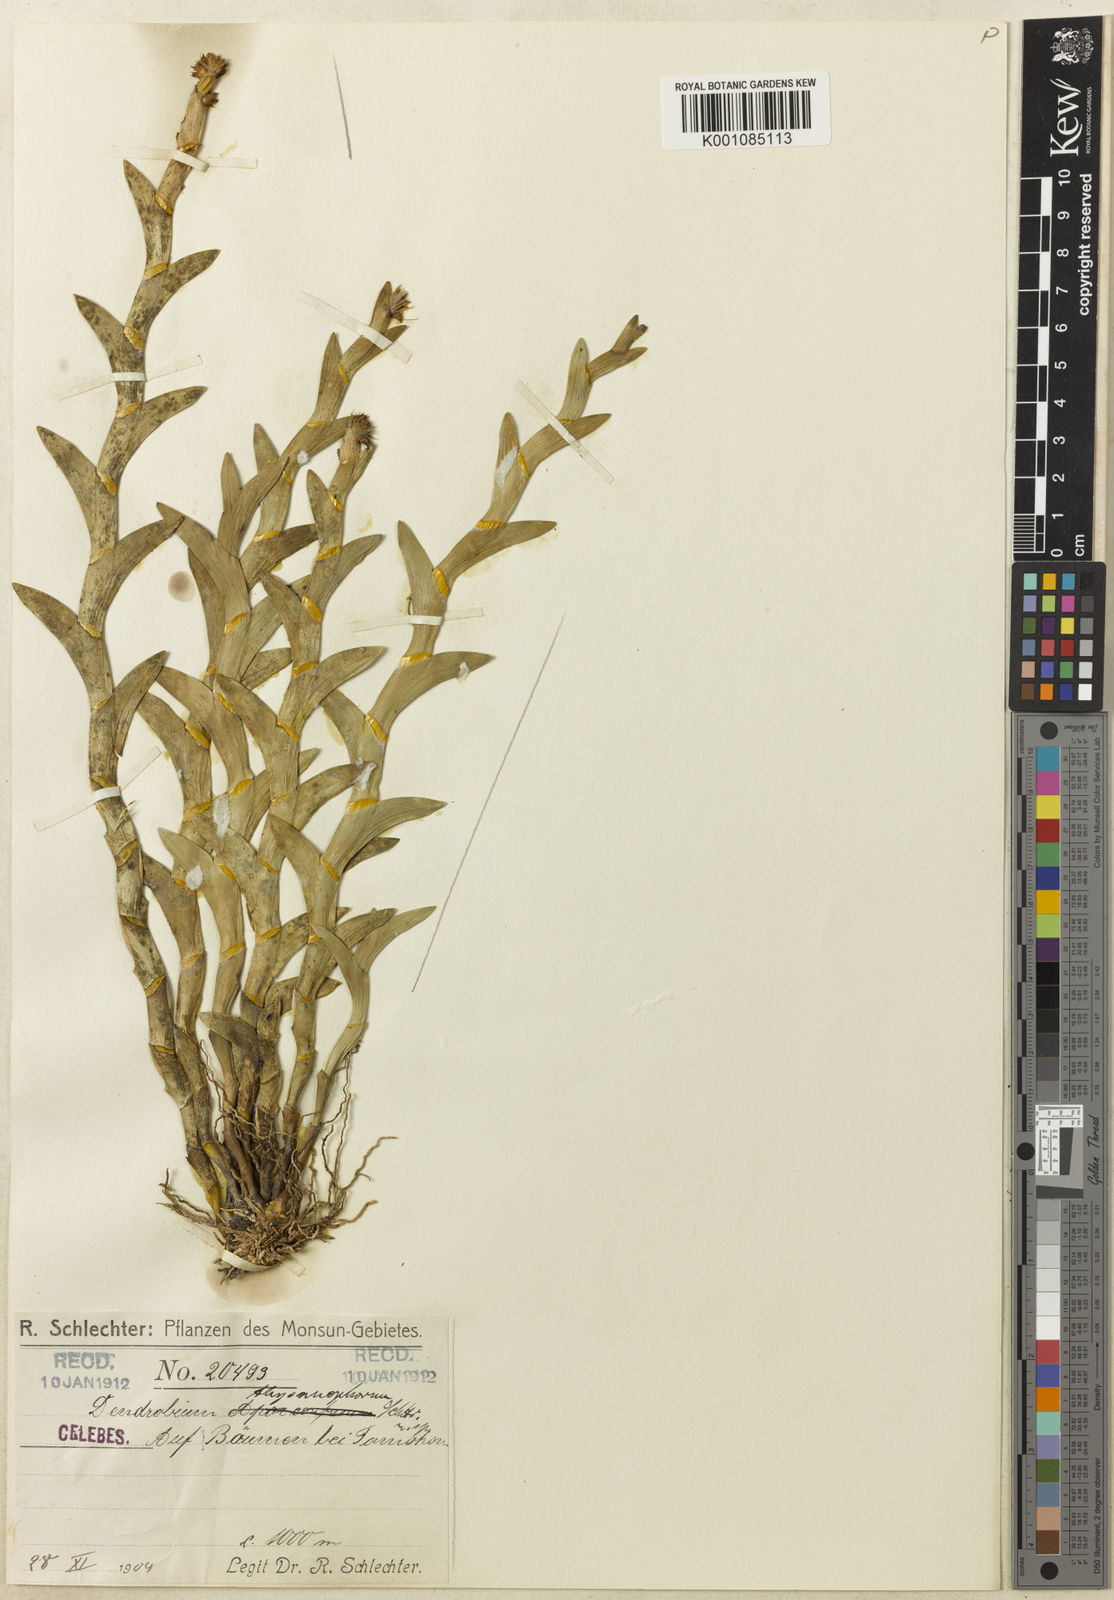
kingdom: Plantae
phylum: Tracheophyta
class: Liliopsida
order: Asparagales
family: Orchidaceae
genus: Dendrobium
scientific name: Dendrobium macrostachyum
